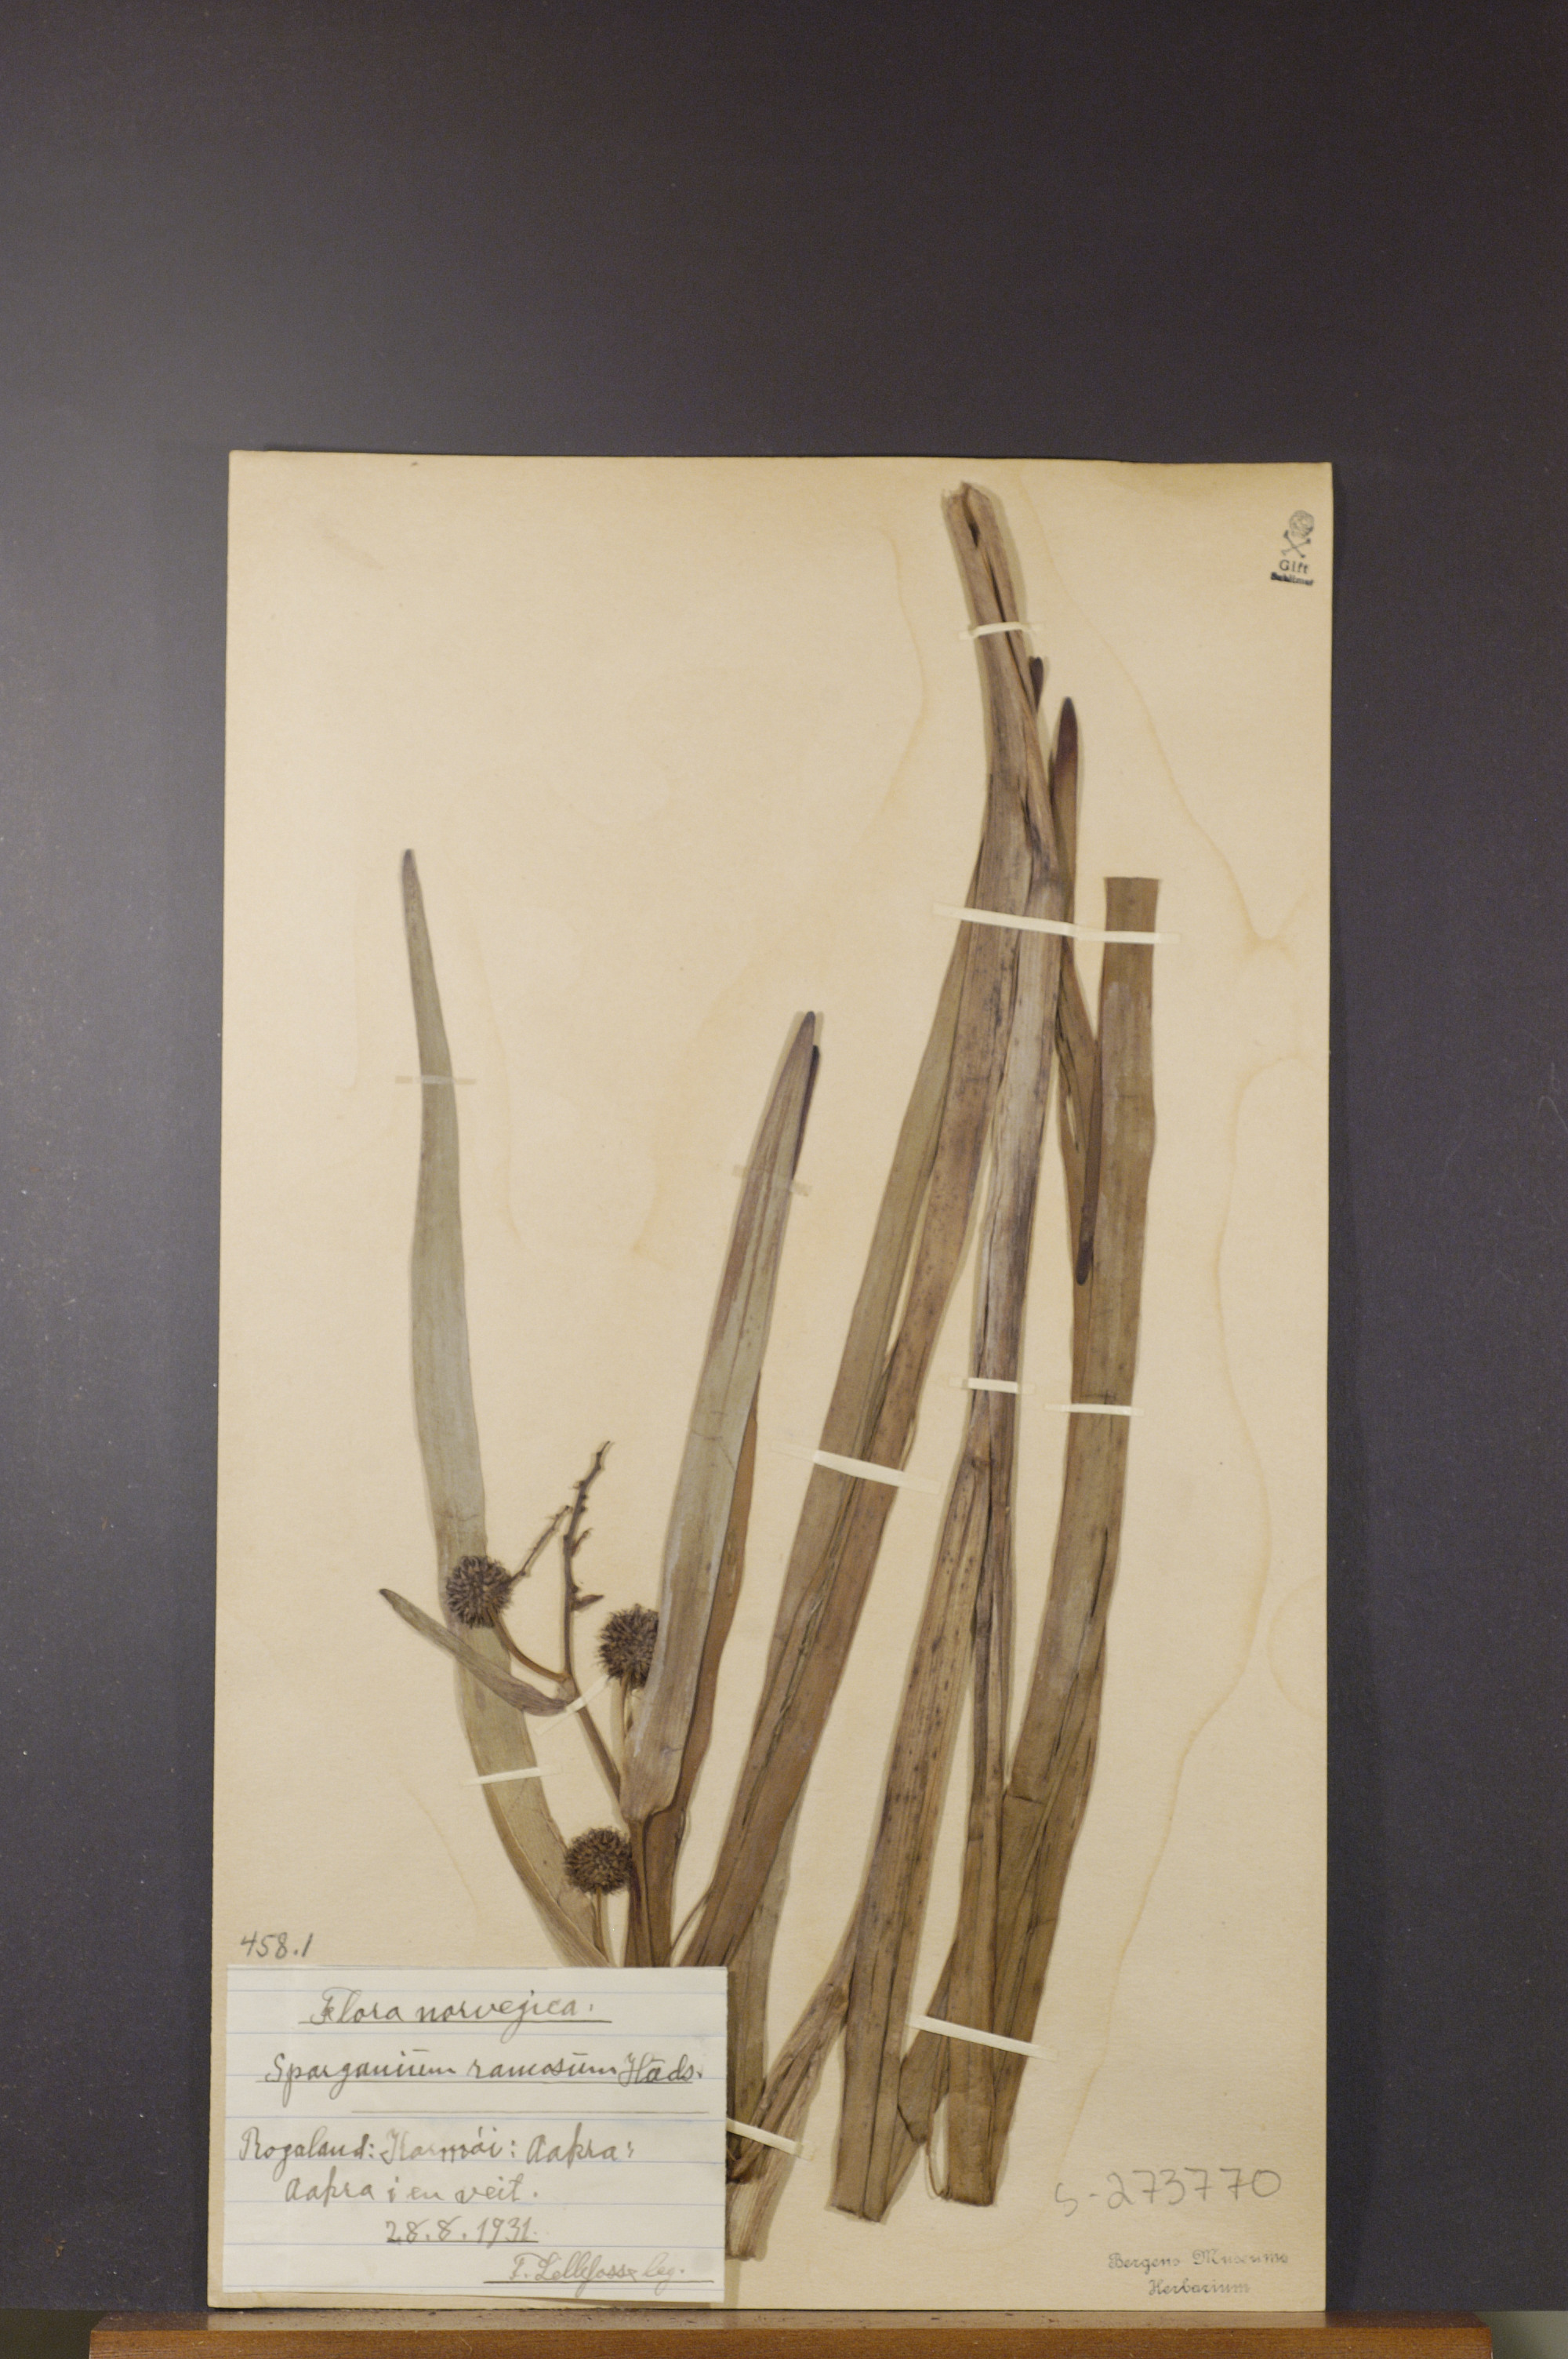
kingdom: Plantae
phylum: Tracheophyta
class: Liliopsida
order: Poales
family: Typhaceae
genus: Sparganium
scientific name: Sparganium erectum
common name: Branched bur-reed
